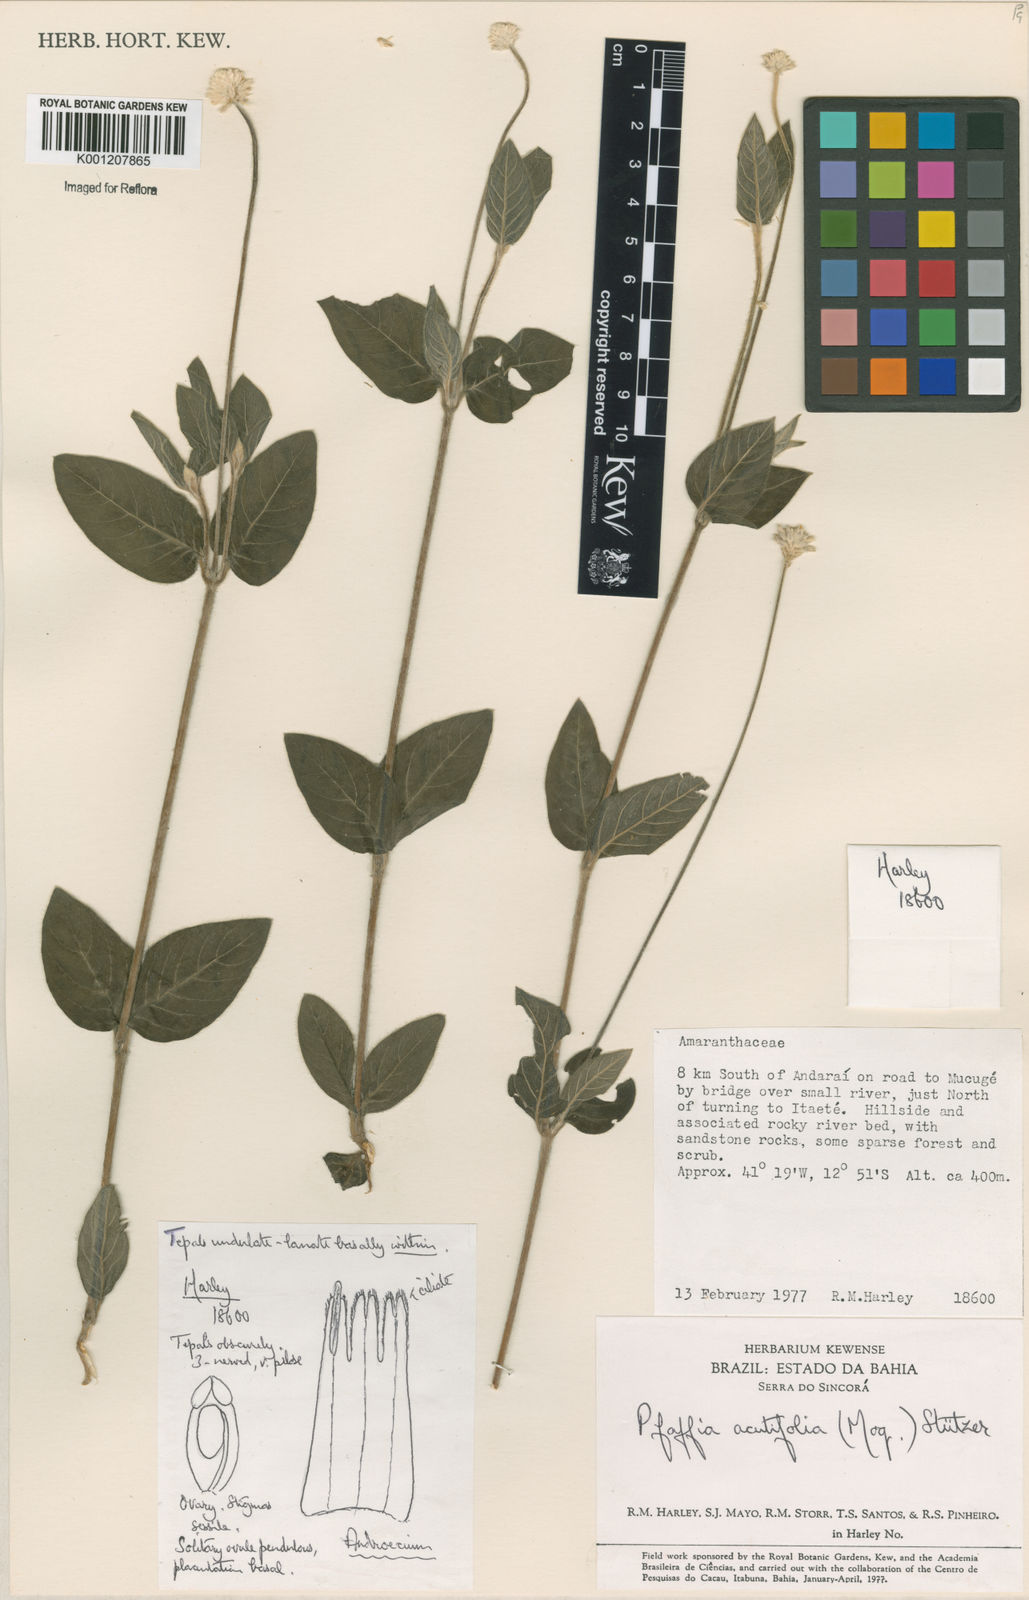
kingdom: Plantae
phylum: Tracheophyta
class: Magnoliopsida
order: Caryophyllales
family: Amaranthaceae
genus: Pfaffia
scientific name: Pfaffia
